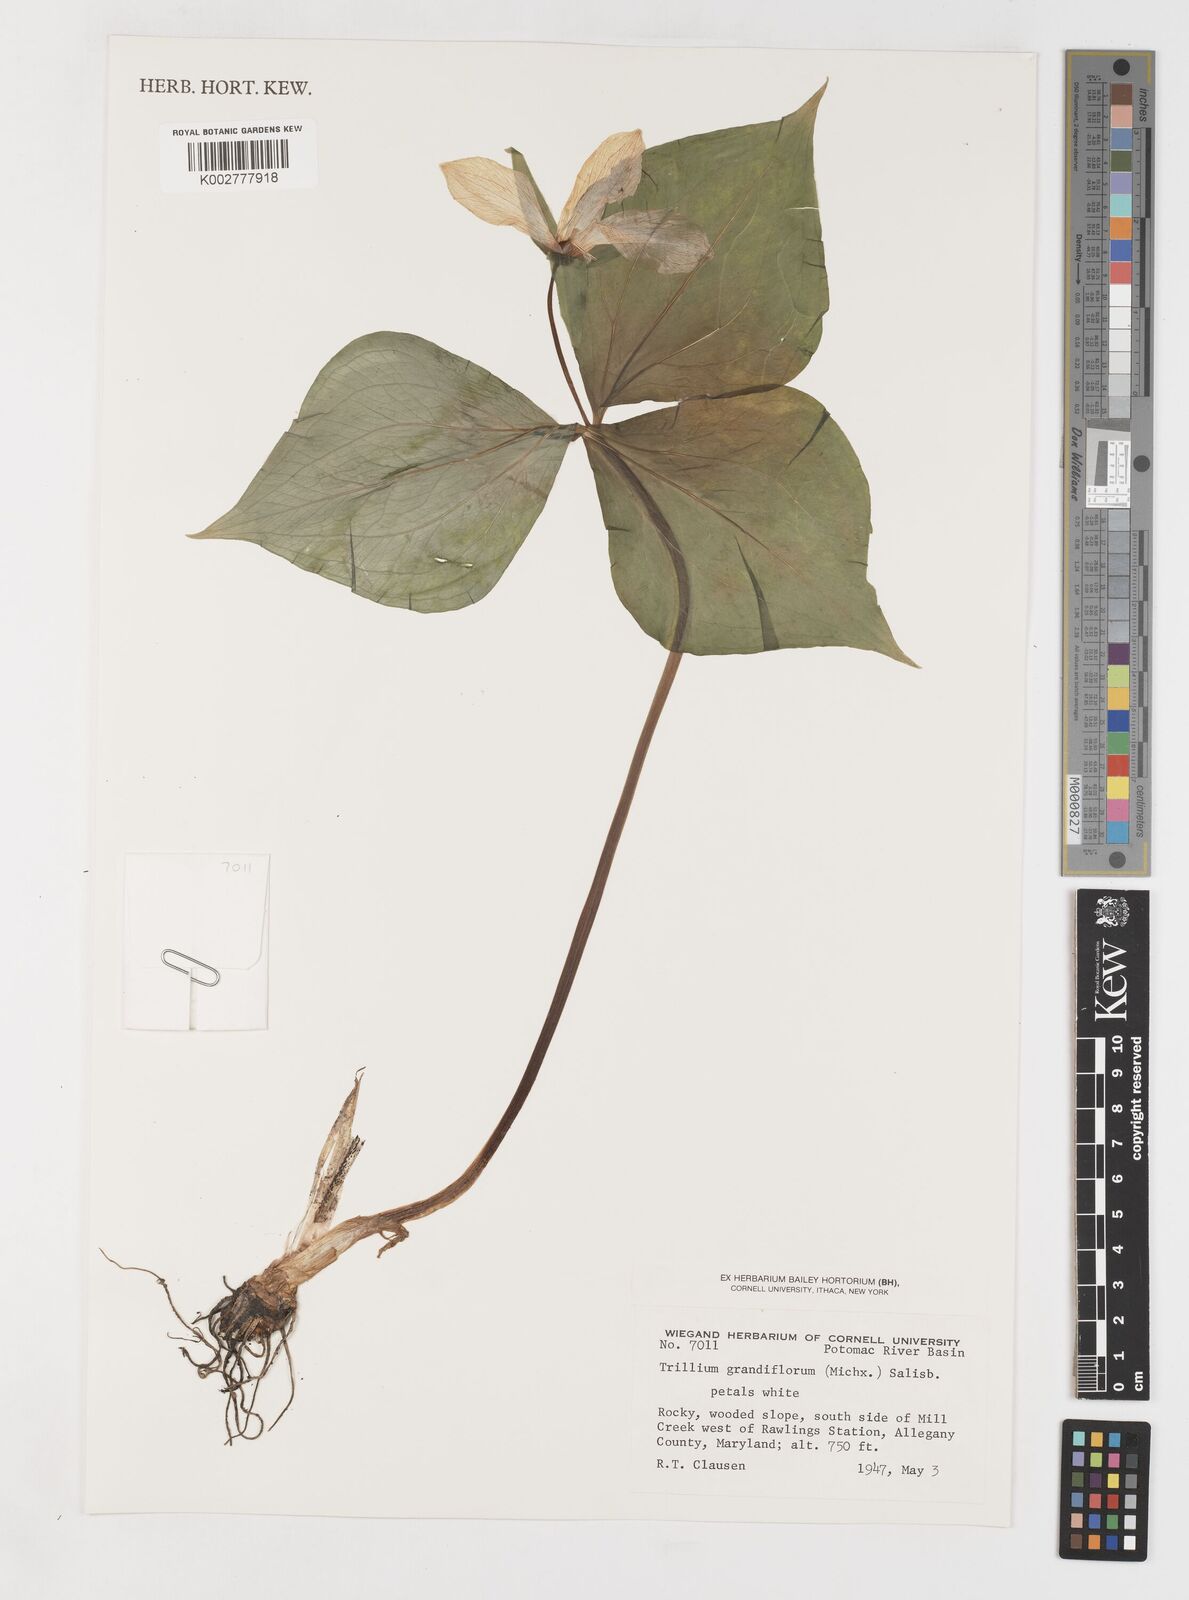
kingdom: Plantae
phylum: Tracheophyta
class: Liliopsida
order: Liliales
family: Melanthiaceae
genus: Trillium
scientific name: Trillium grandiflorum
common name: Great white trillium
